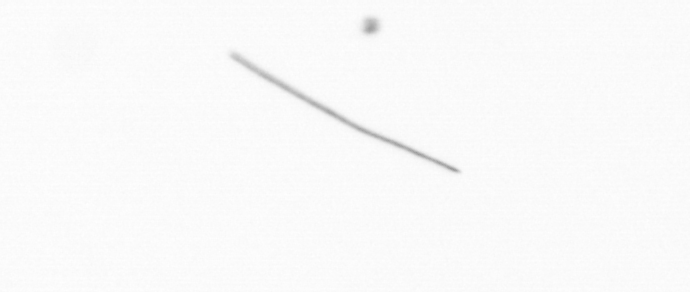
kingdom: Chromista
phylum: Ochrophyta
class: Bacillariophyceae
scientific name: Bacillariophyceae
